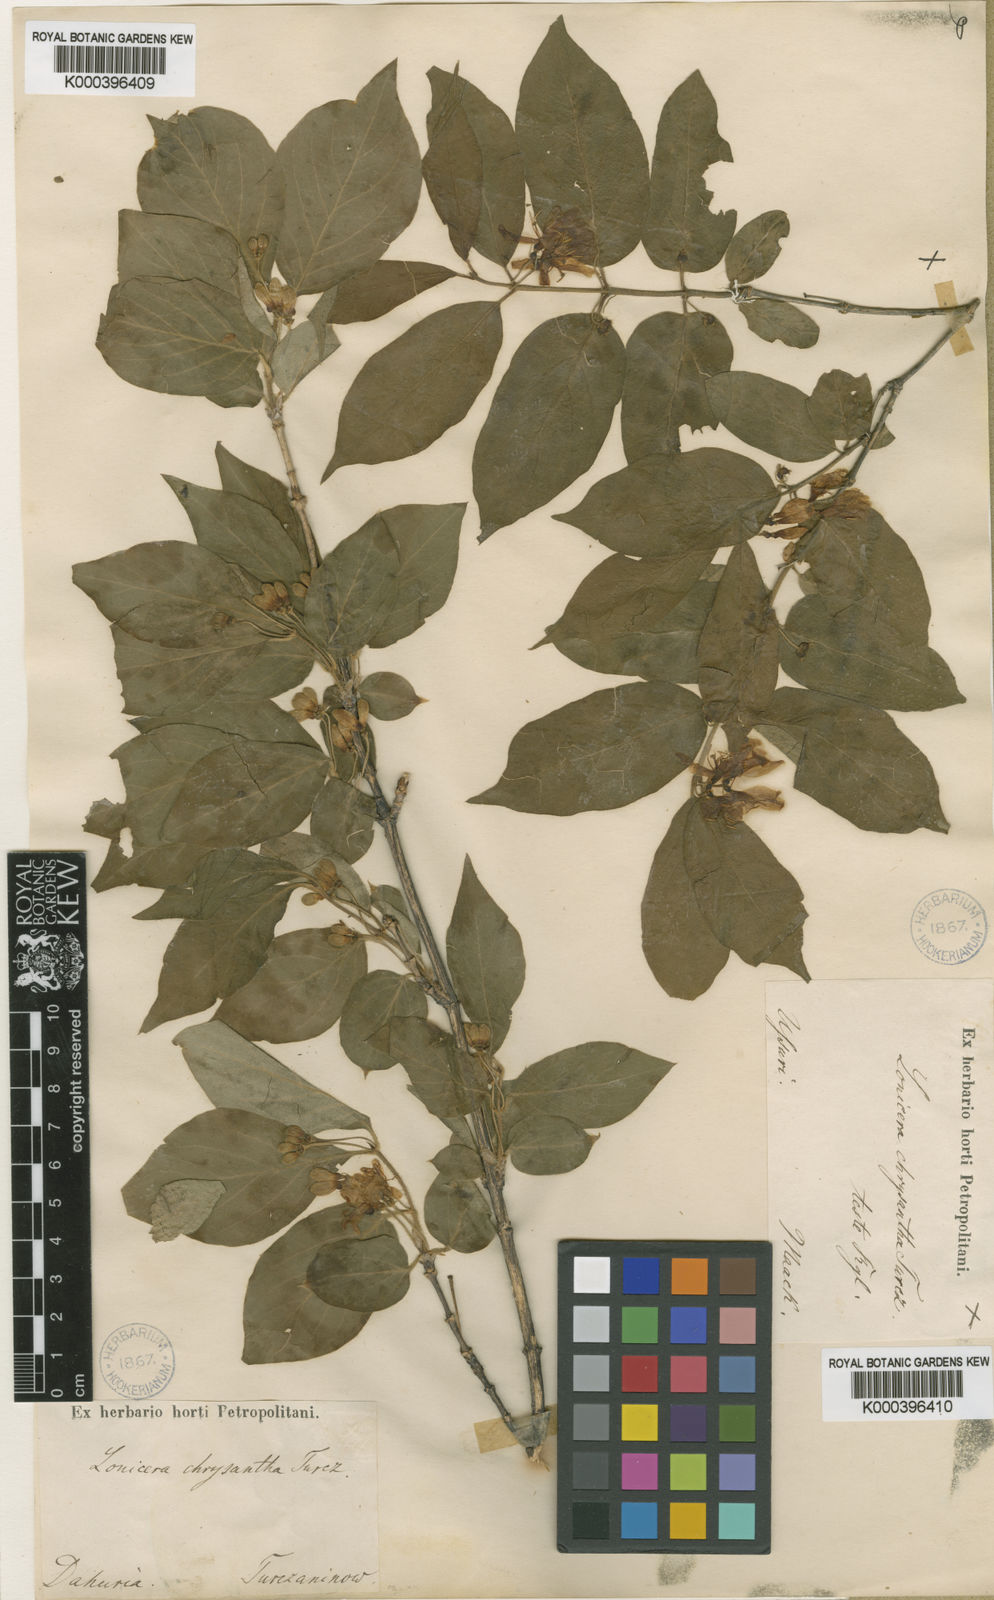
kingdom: Plantae
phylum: Tracheophyta
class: Magnoliopsida
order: Dipsacales
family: Caprifoliaceae
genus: Lonicera
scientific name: Lonicera
